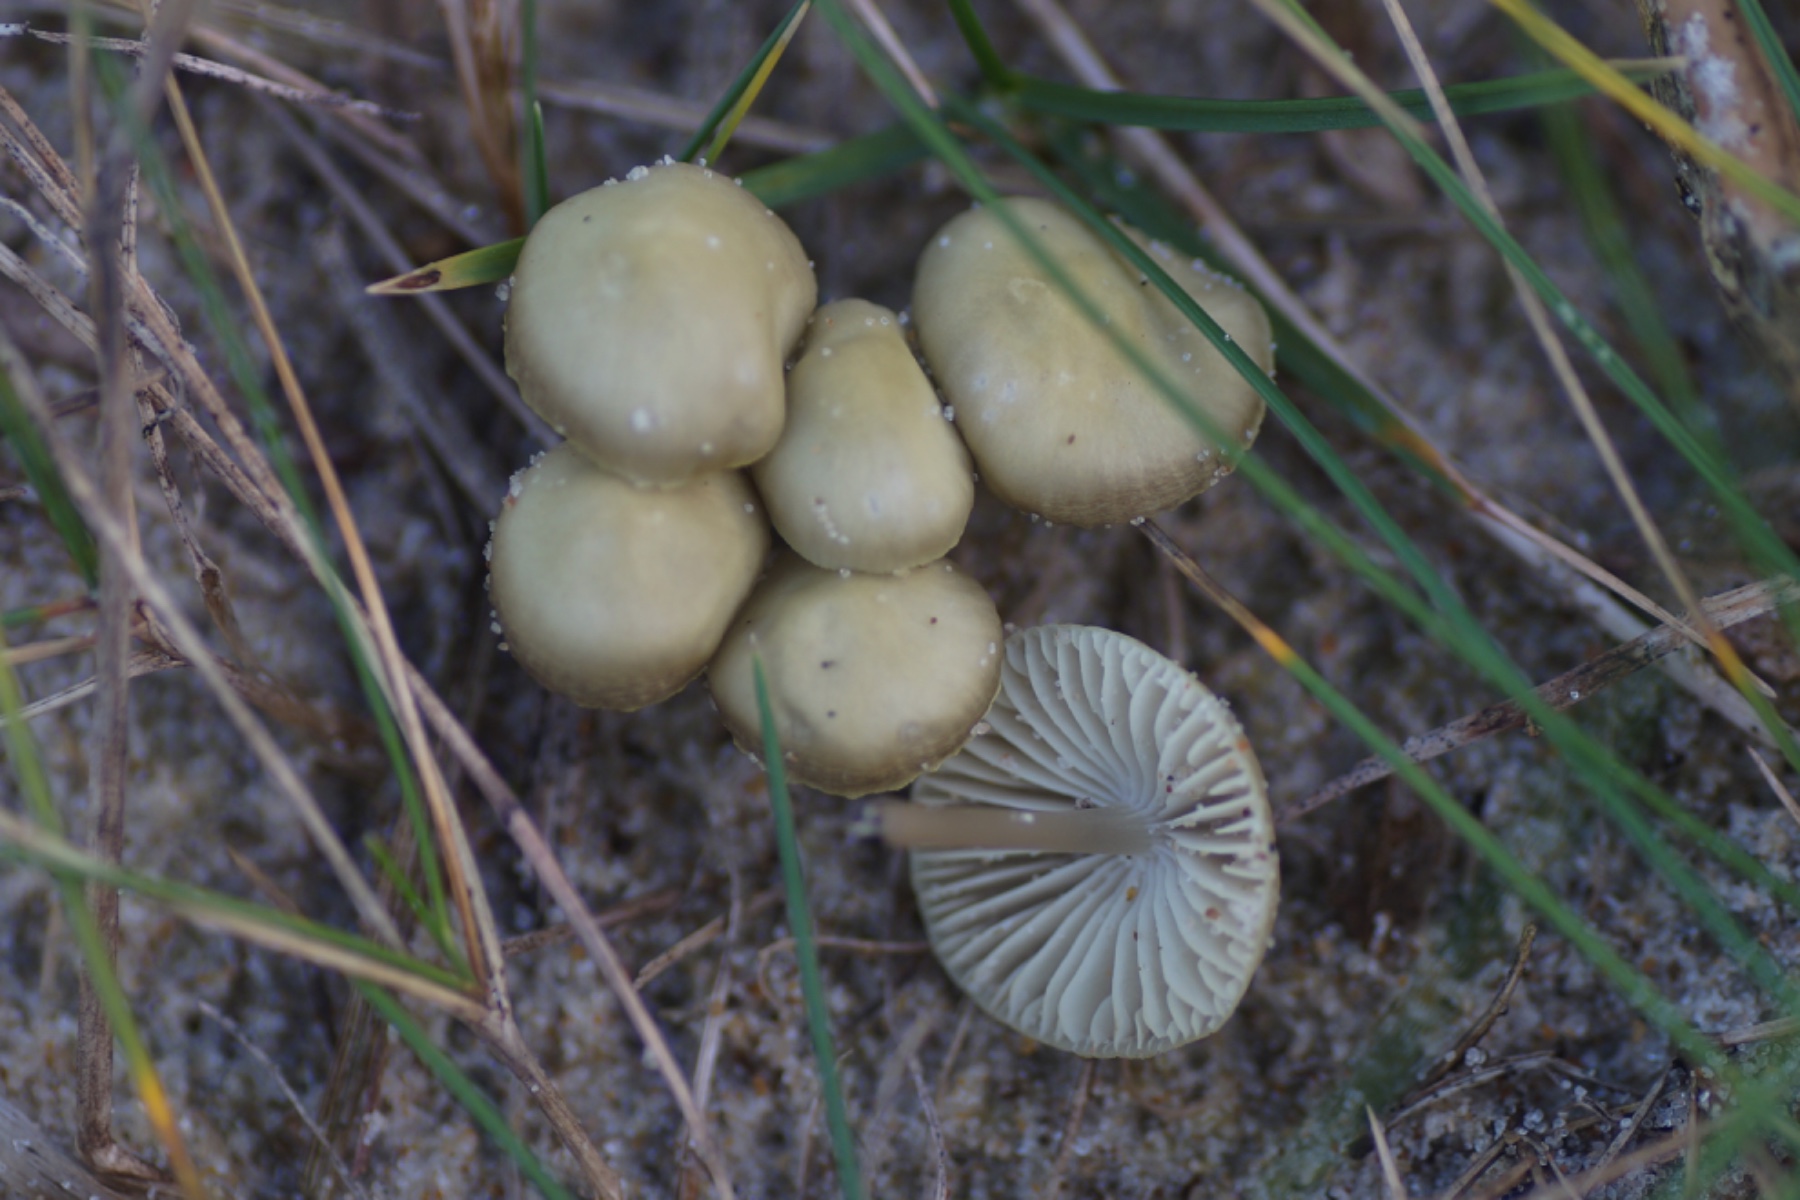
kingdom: Fungi
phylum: Basidiomycota
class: Agaricomycetes
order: Agaricales
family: Mycenaceae
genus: Mycena
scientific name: Mycena chlorantha
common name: klit-huesvamp
